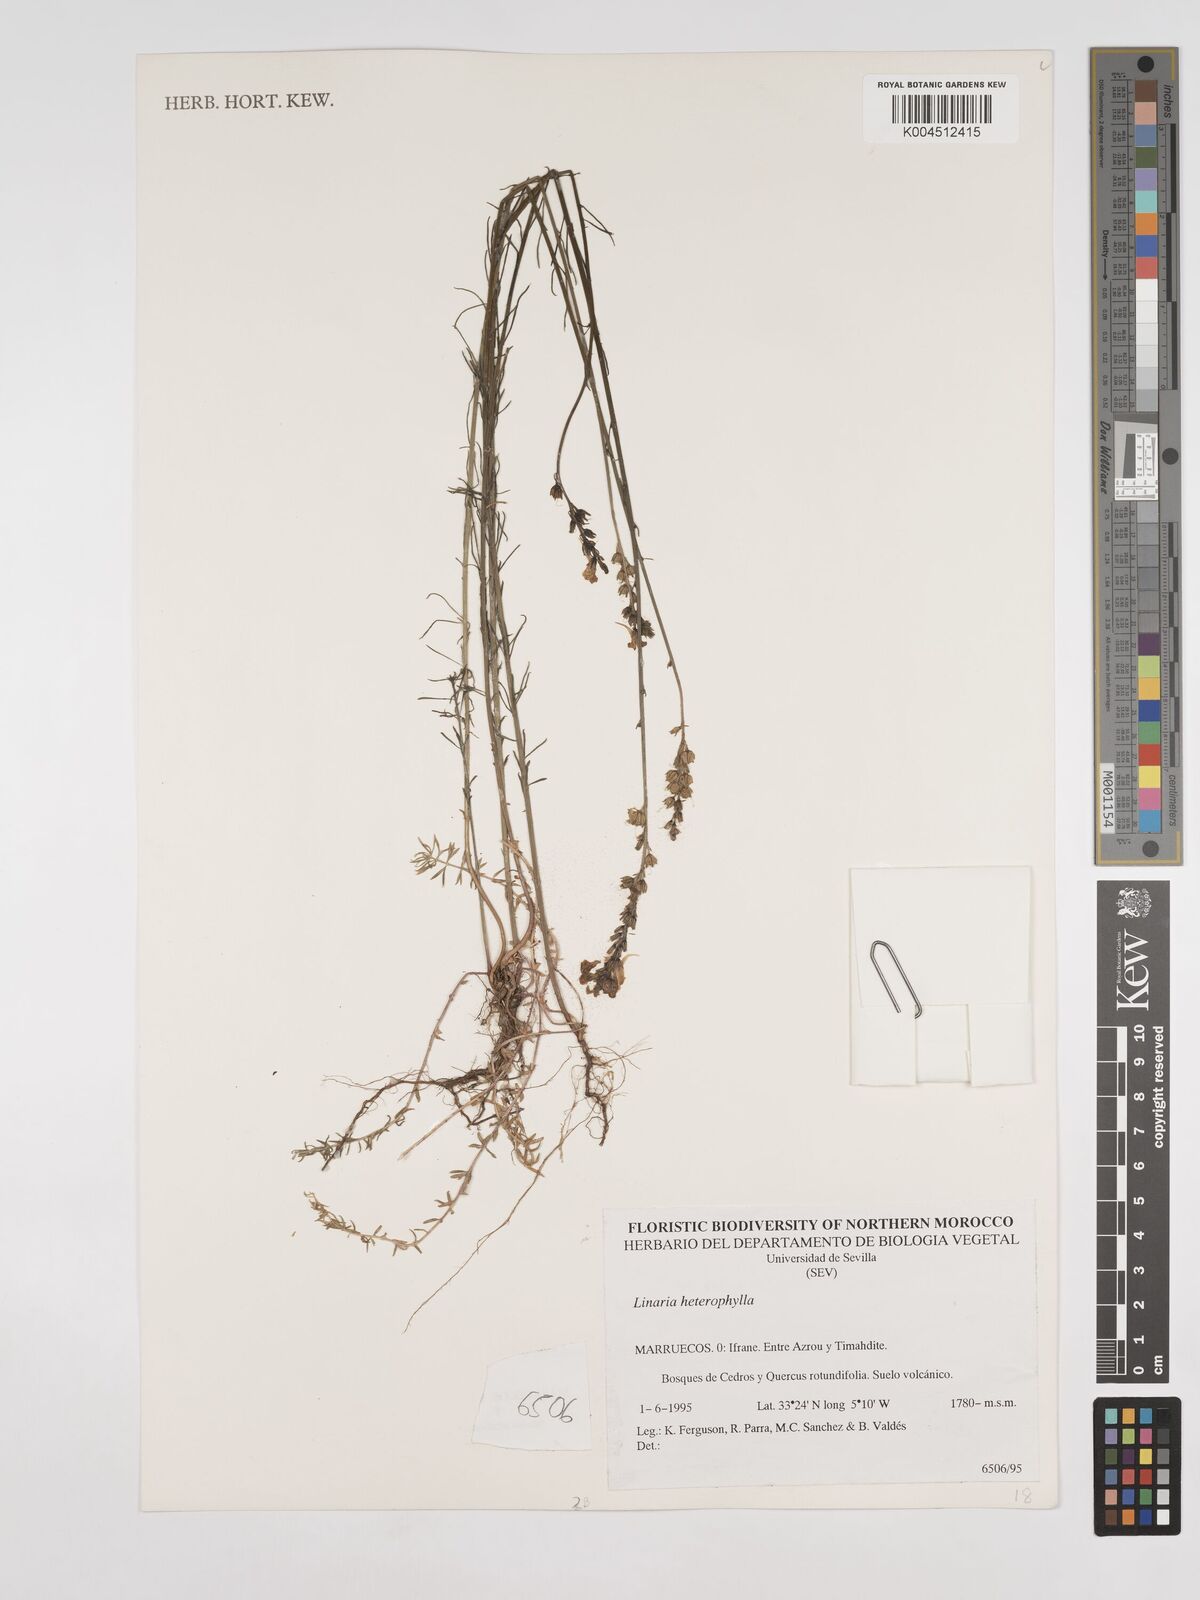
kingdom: Plantae
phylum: Tracheophyta
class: Magnoliopsida
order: Lamiales
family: Plantaginaceae
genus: Linaria
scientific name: Linaria multicaulis
